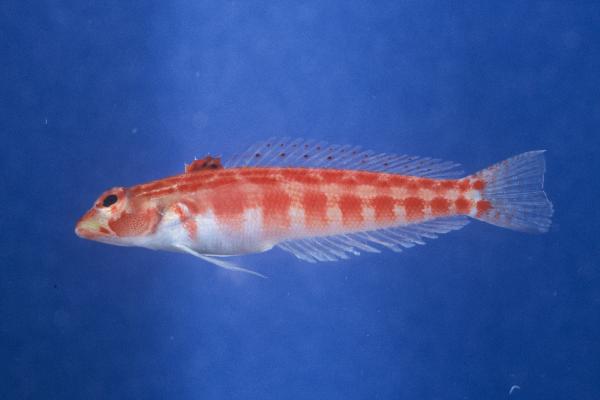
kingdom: Animalia
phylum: Chordata
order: Perciformes
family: Pinguipedidae
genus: Parapercis
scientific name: Parapercis schauinslandii
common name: Redspotted sandperch
